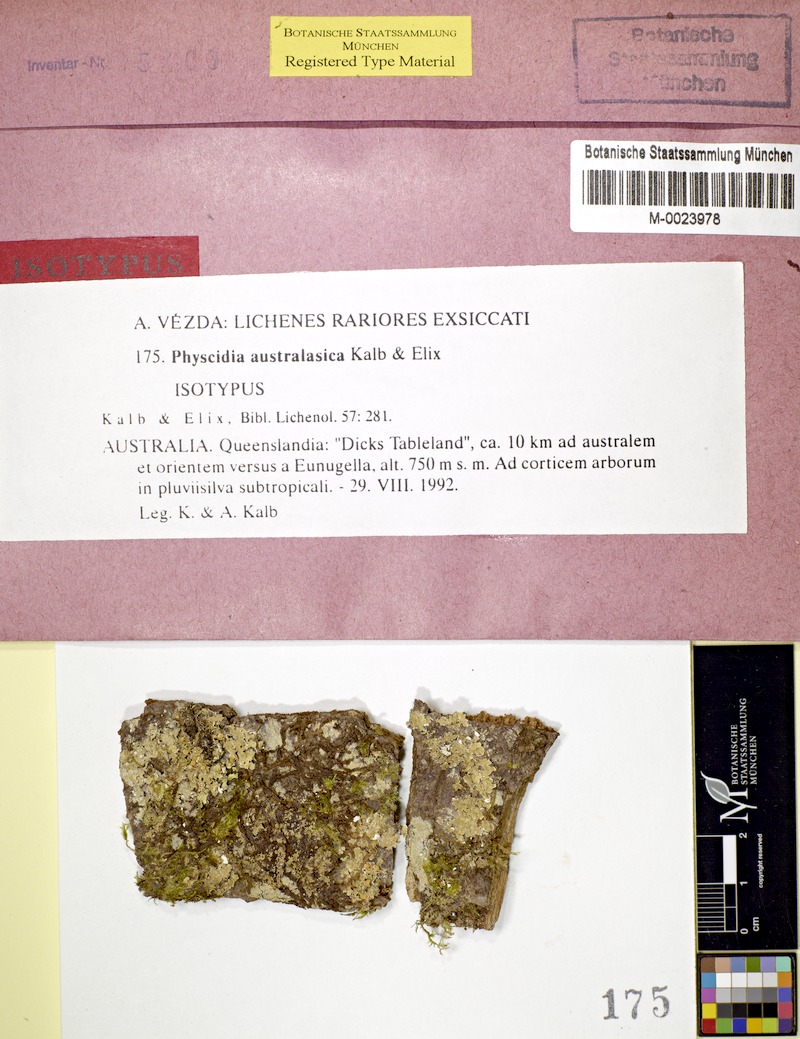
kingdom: Fungi
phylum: Ascomycota
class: Lecanoromycetes
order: Lecanorales
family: Ramalinaceae
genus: Physcidia
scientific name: Physcidia australasica
